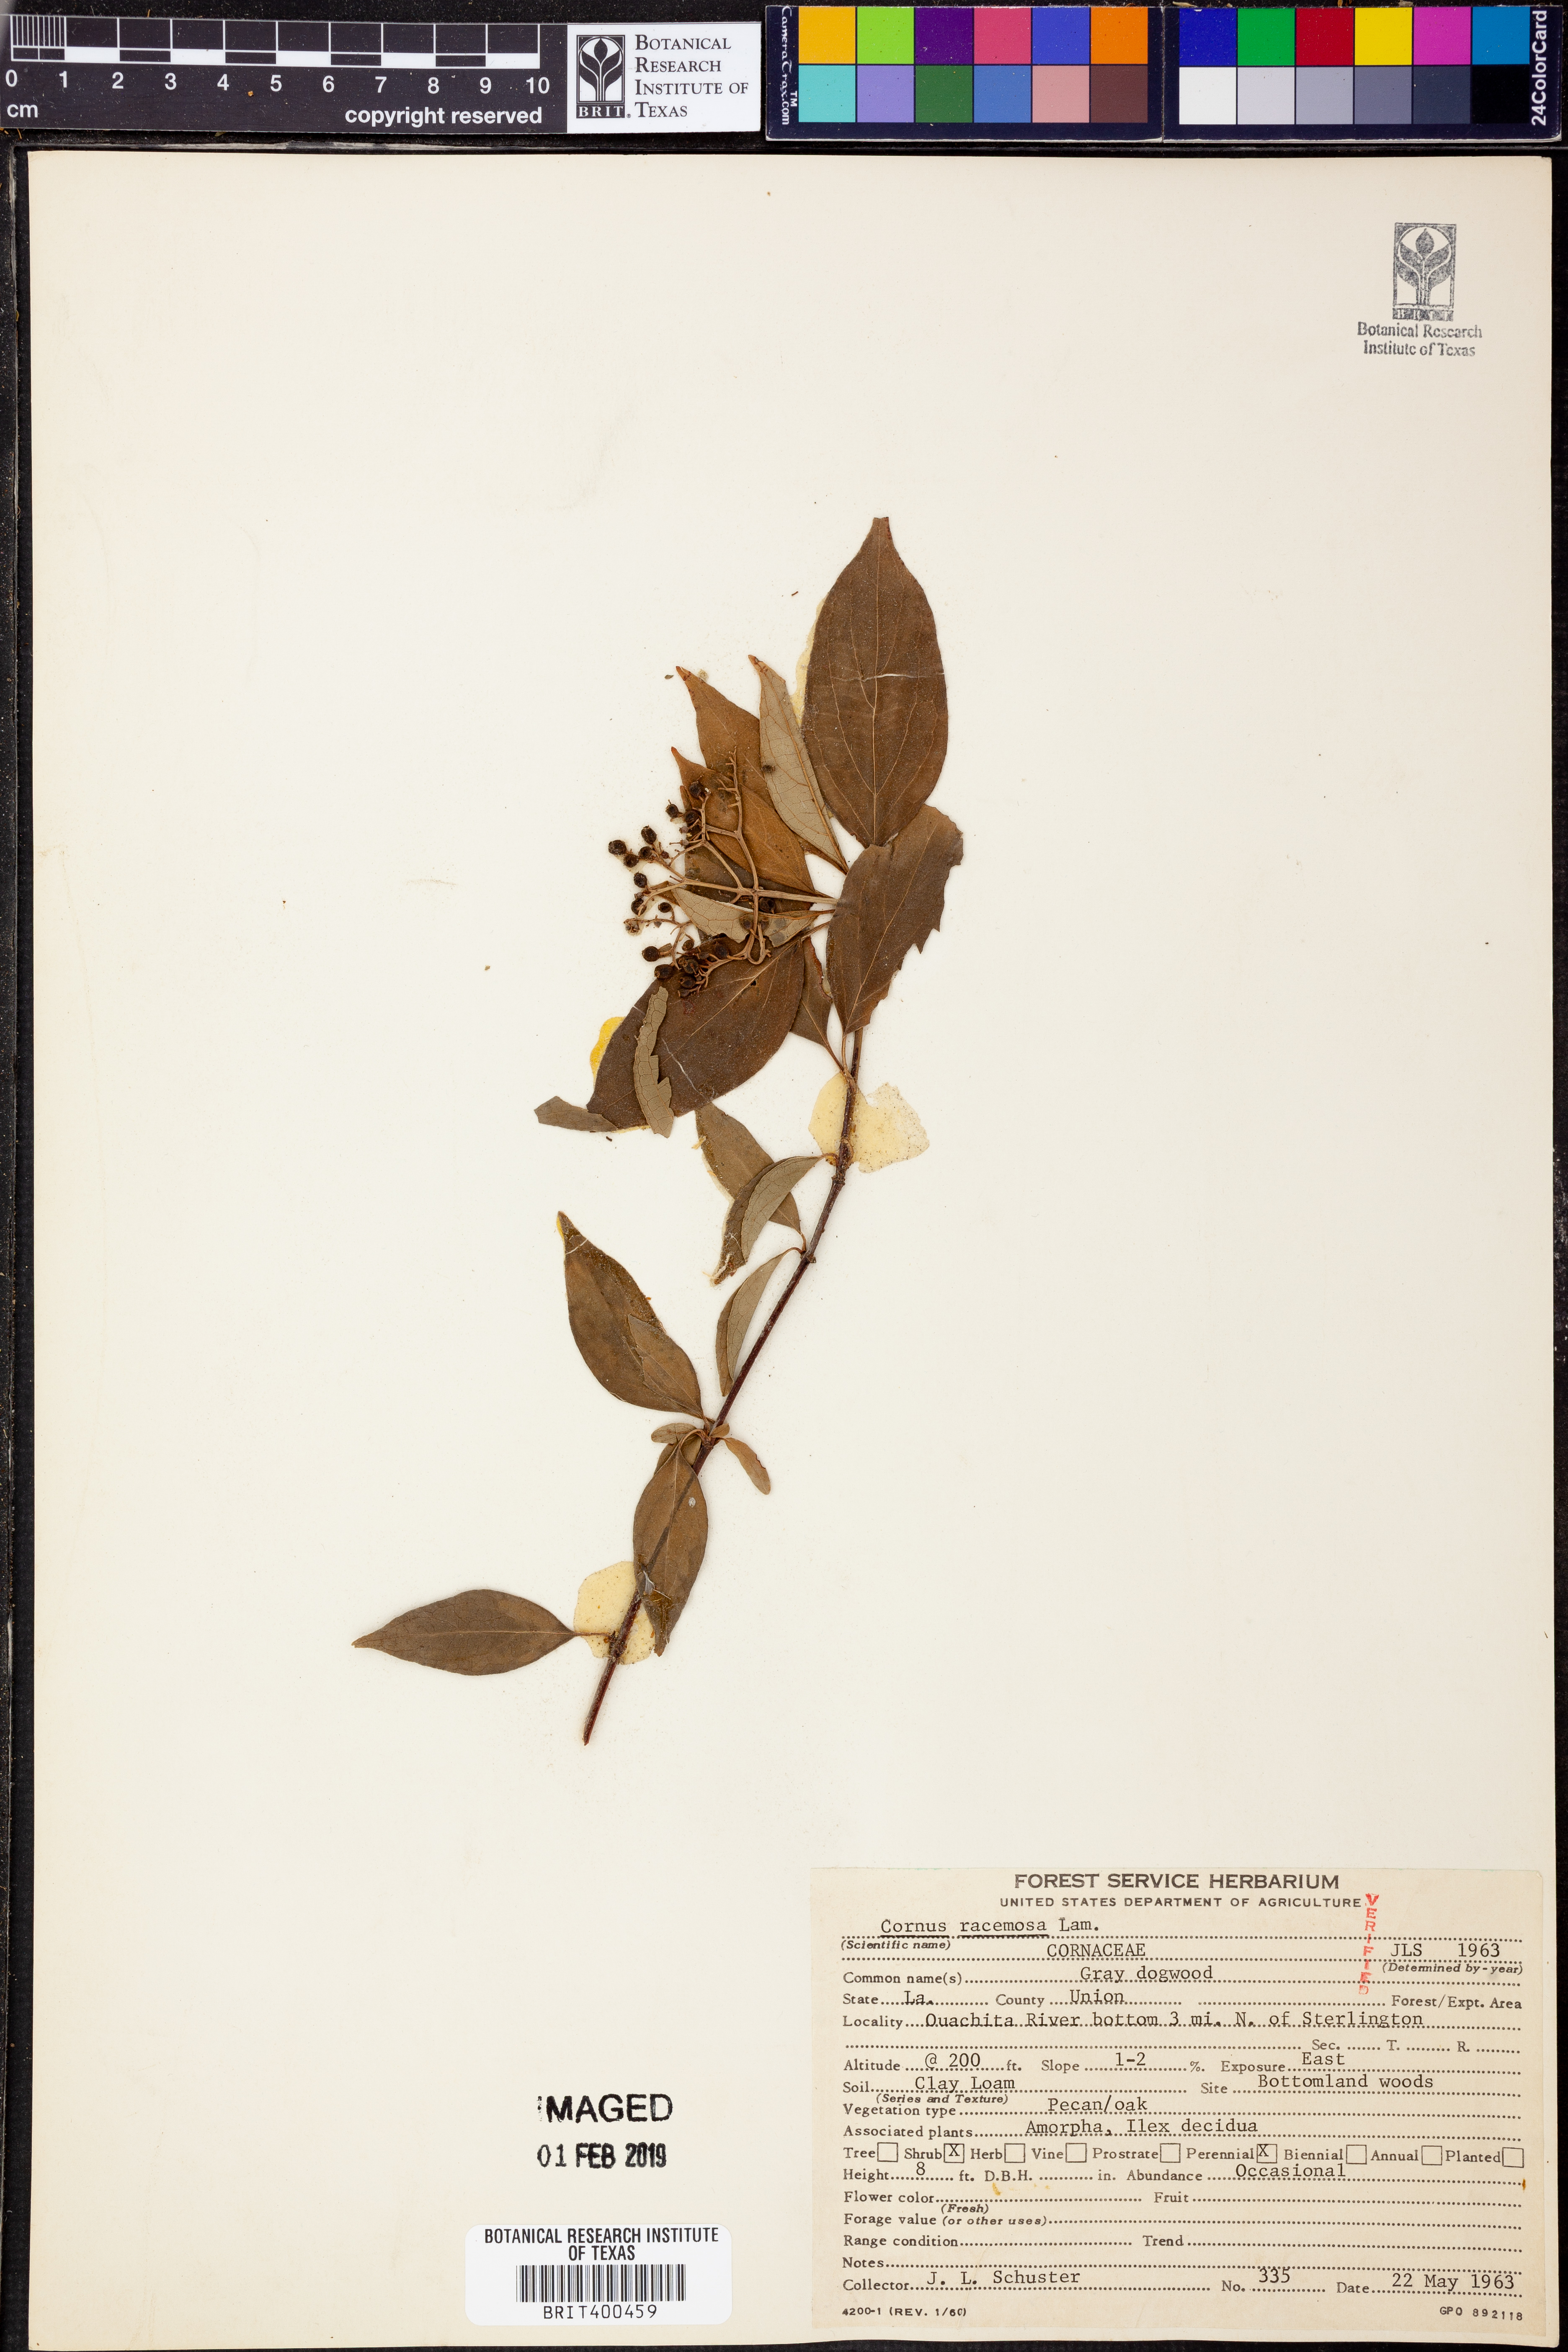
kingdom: Plantae
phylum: Tracheophyta
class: Magnoliopsida
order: Cornales
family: Cornaceae
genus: Cornus
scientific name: Cornus racemosa
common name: Panicled dogwood
